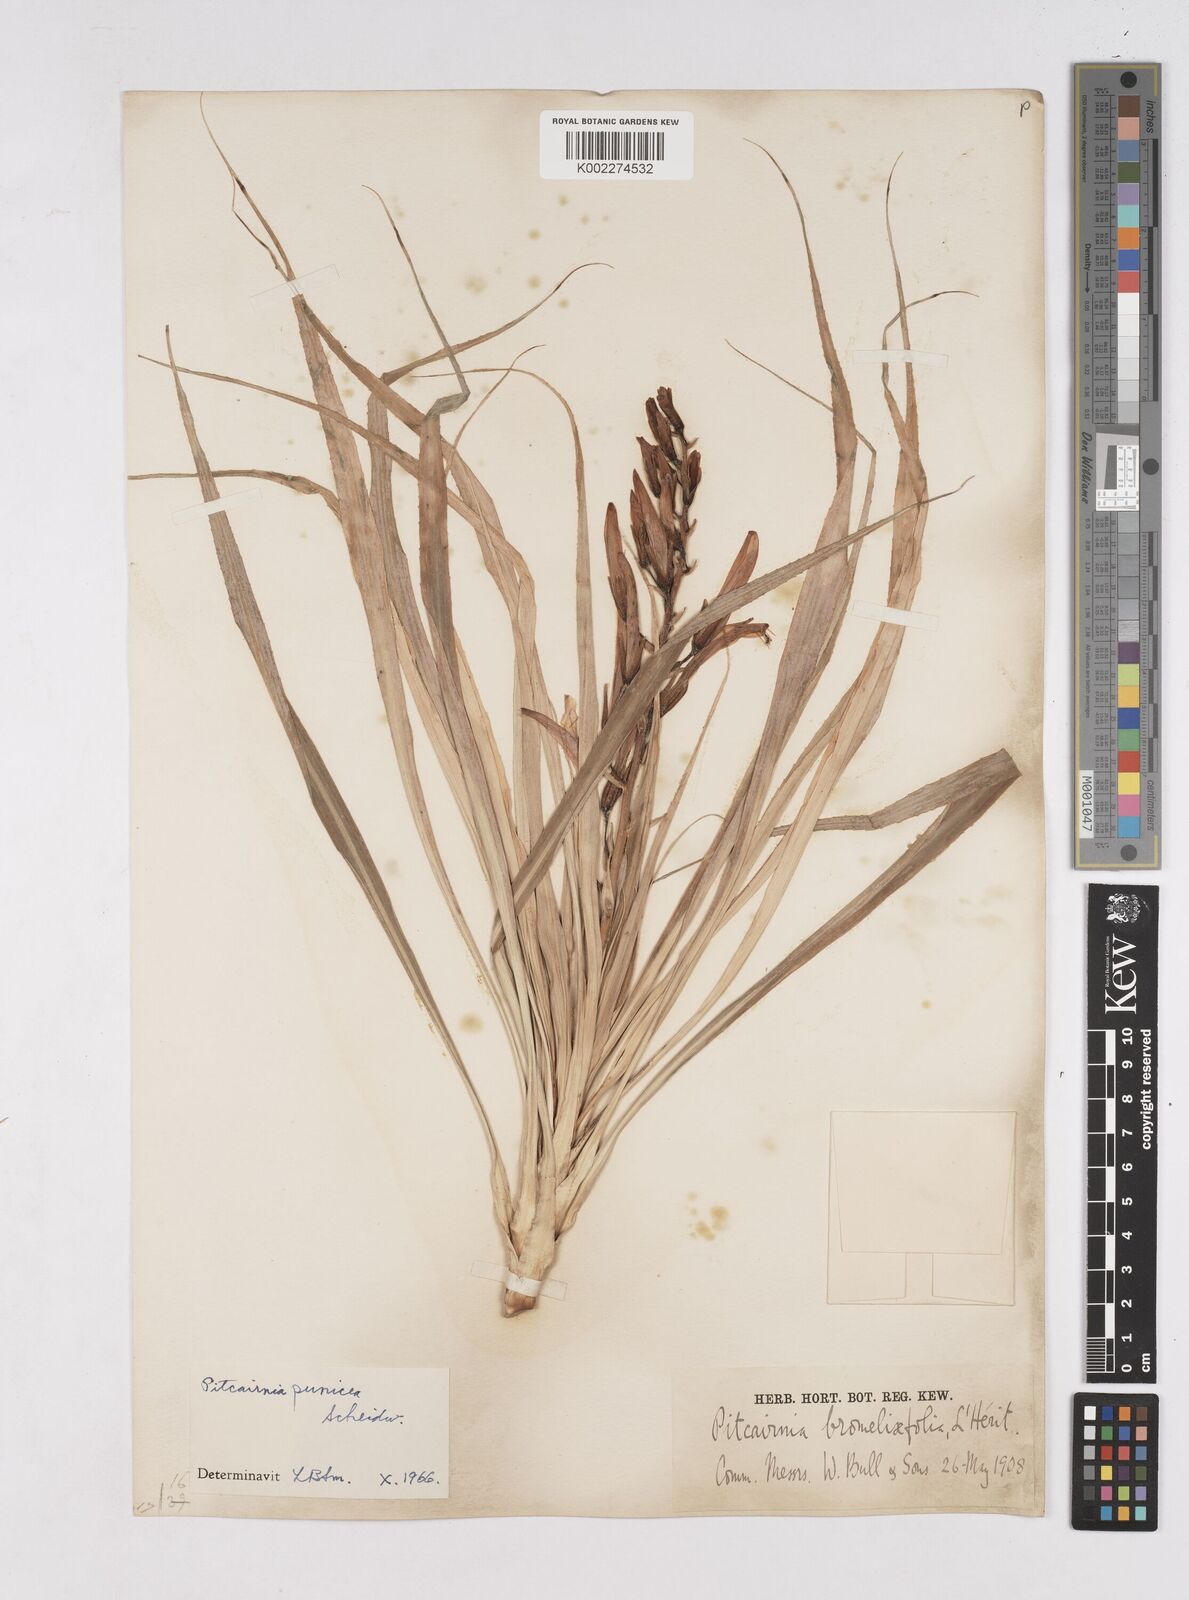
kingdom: Plantae
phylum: Tracheophyta
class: Liliopsida
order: Poales
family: Bromeliaceae
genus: Pitcairnia
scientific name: Pitcairnia punicea
